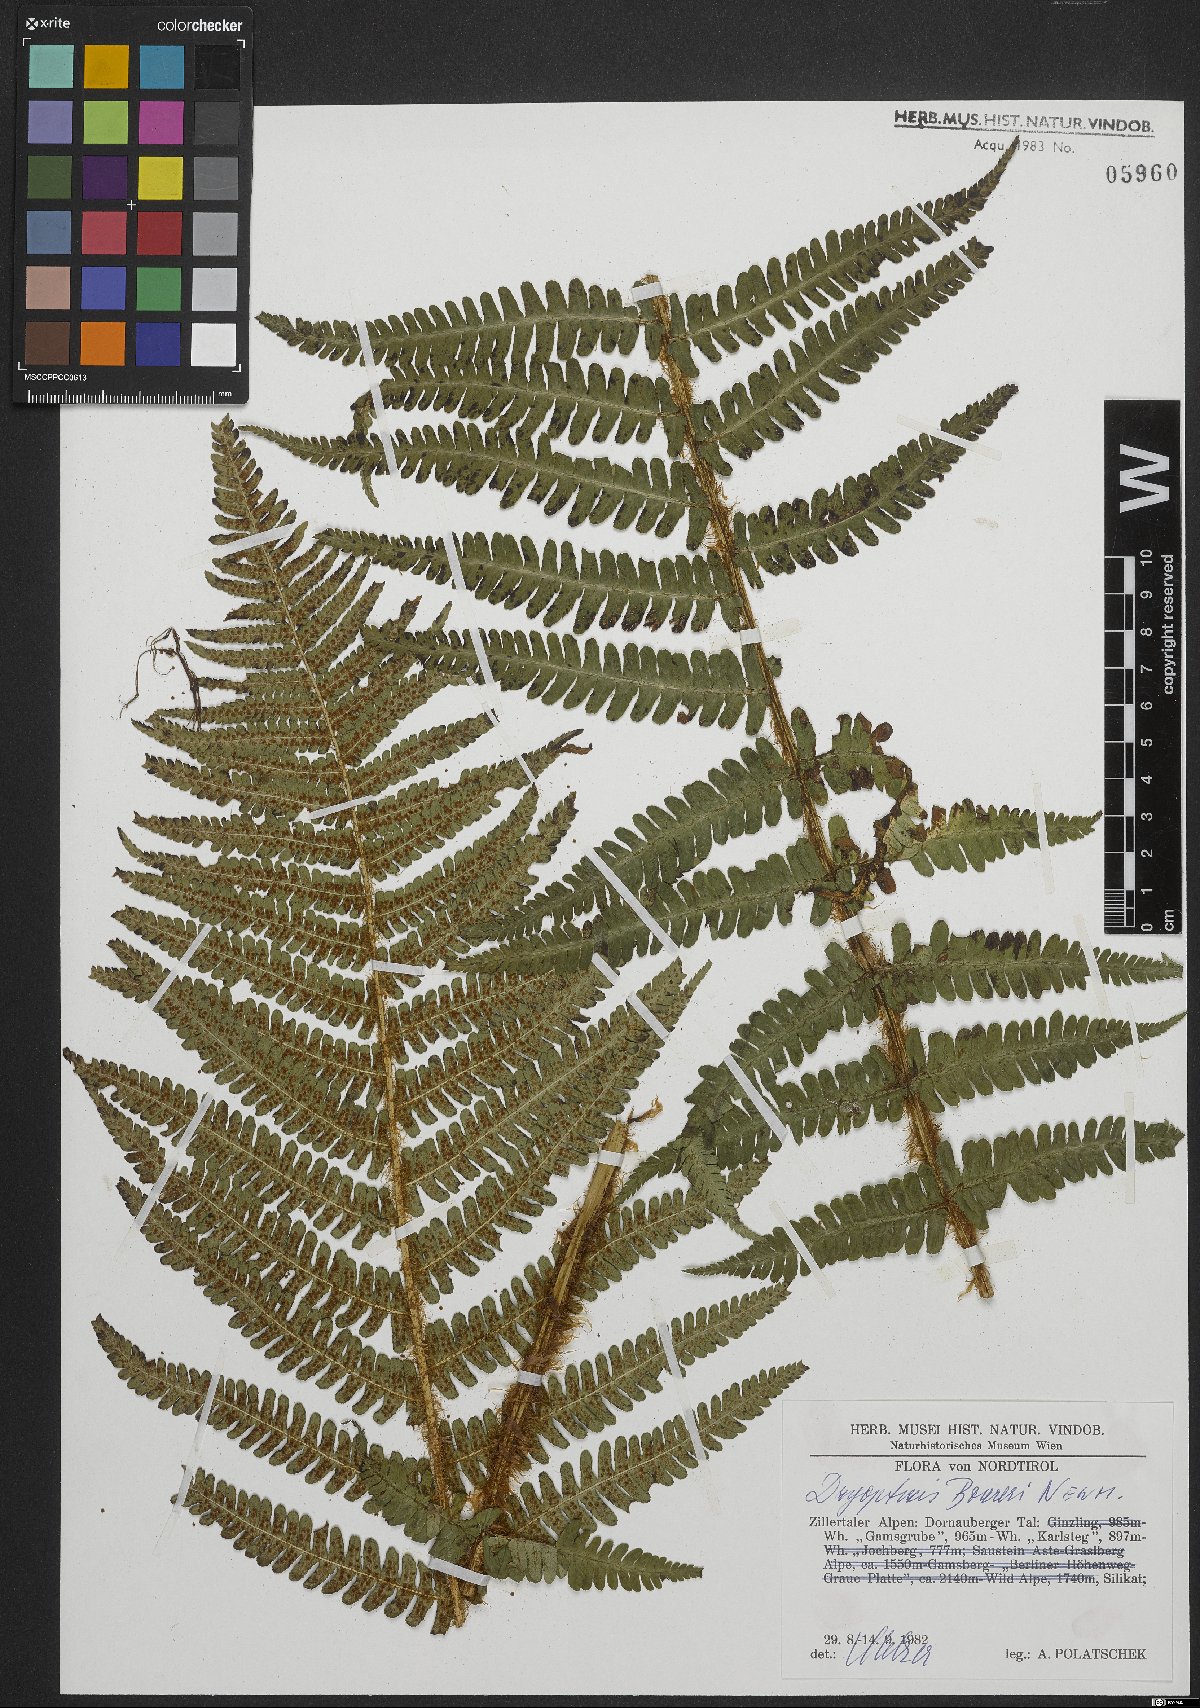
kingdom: Plantae
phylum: Tracheophyta
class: Polypodiopsida
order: Polypodiales
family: Dryopteridaceae
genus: Dryopteris
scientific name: Dryopteris borreri
